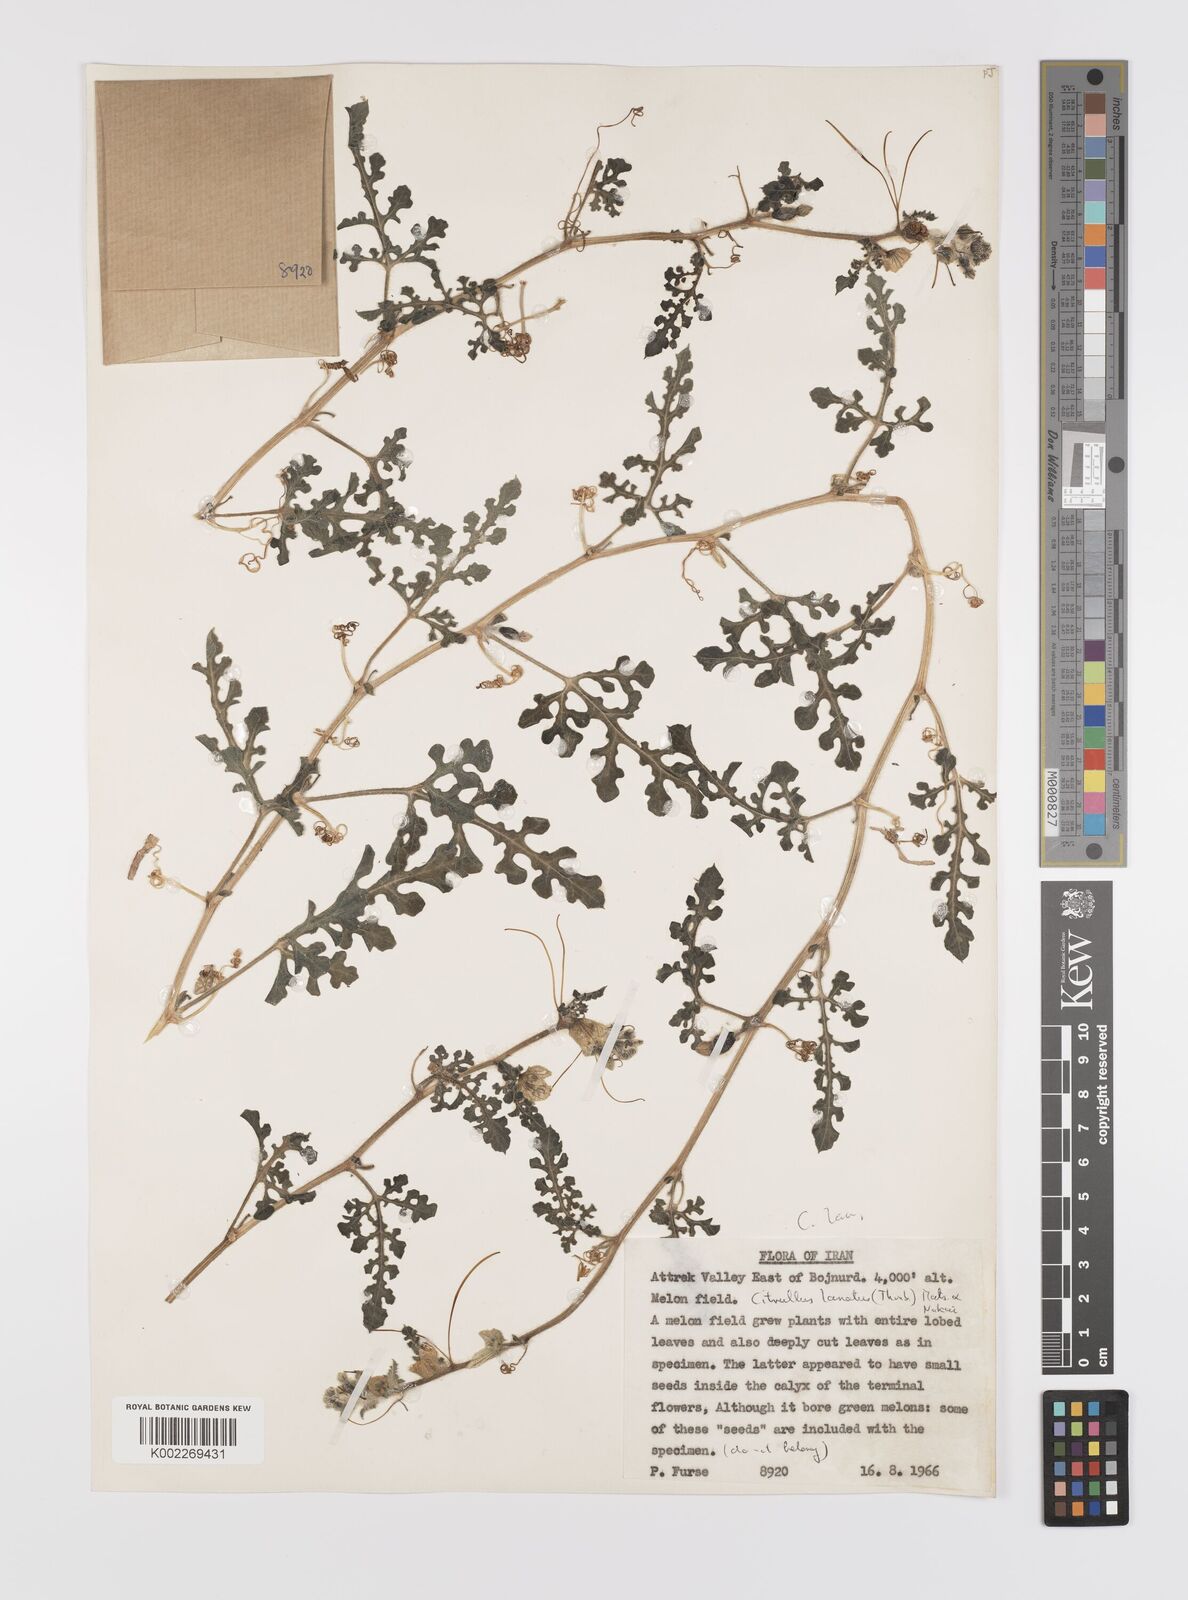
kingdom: Plantae
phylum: Tracheophyta
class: Magnoliopsida
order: Cucurbitales
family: Cucurbitaceae
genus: Citrullus
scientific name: Citrullus lanatus
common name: Watermelon
